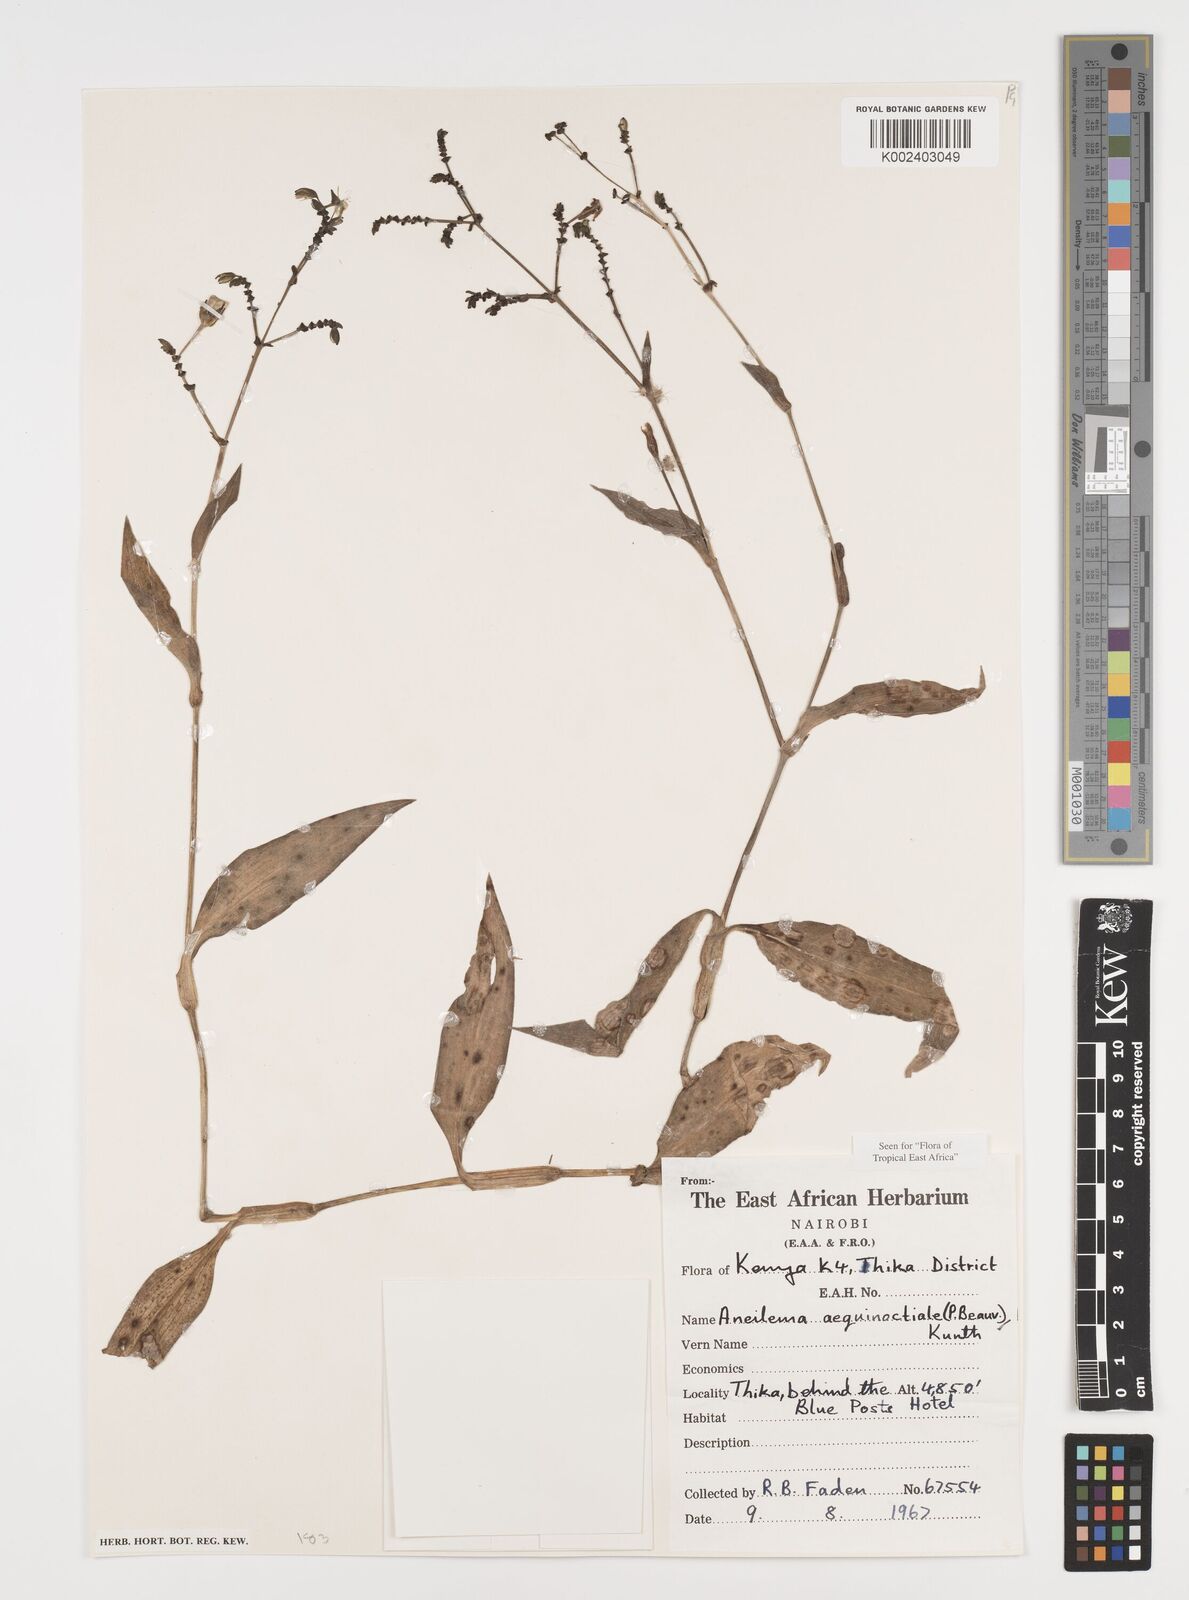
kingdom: Plantae
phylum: Tracheophyta
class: Liliopsida
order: Commelinales
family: Commelinaceae
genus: Aneilema
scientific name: Aneilema aequinoctiale
